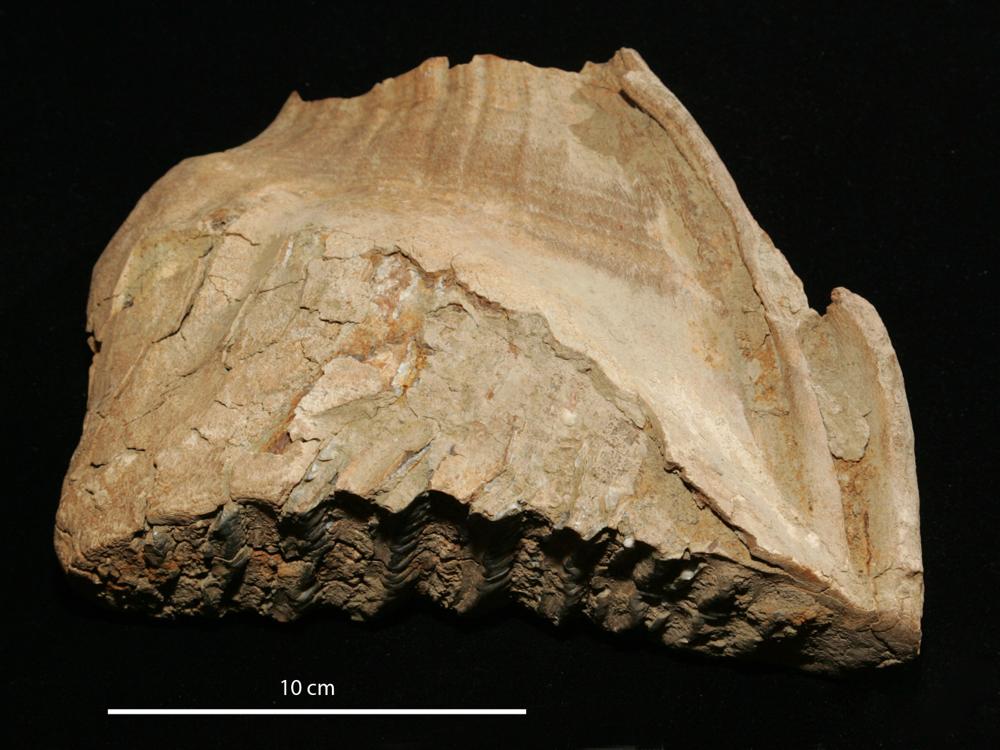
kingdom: Animalia
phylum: Chordata
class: Mammalia
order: Proboscidea
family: Elephantidae
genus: Mammuthus
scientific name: Mammuthus primigenius
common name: Wooly mammoth
